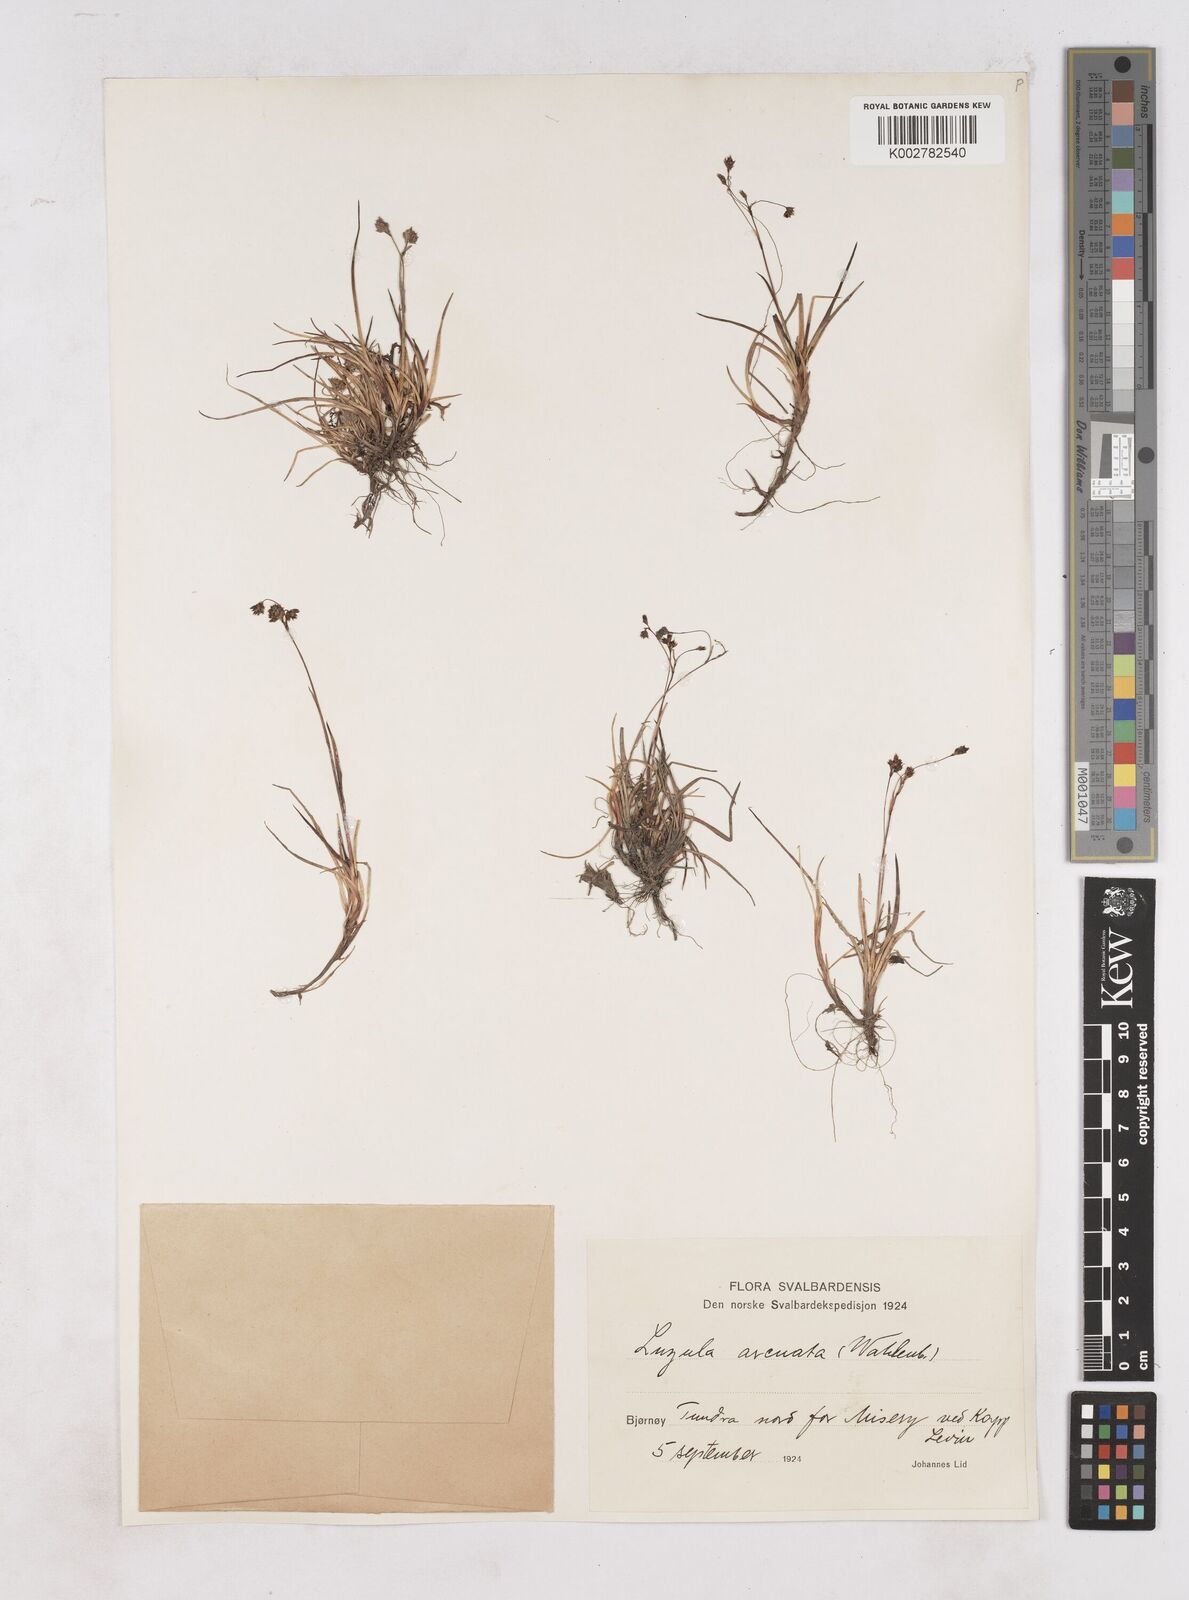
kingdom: Plantae
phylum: Tracheophyta
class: Liliopsida
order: Poales
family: Juncaceae
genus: Luzula
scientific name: Luzula arcuata
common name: Curved wood-rush
